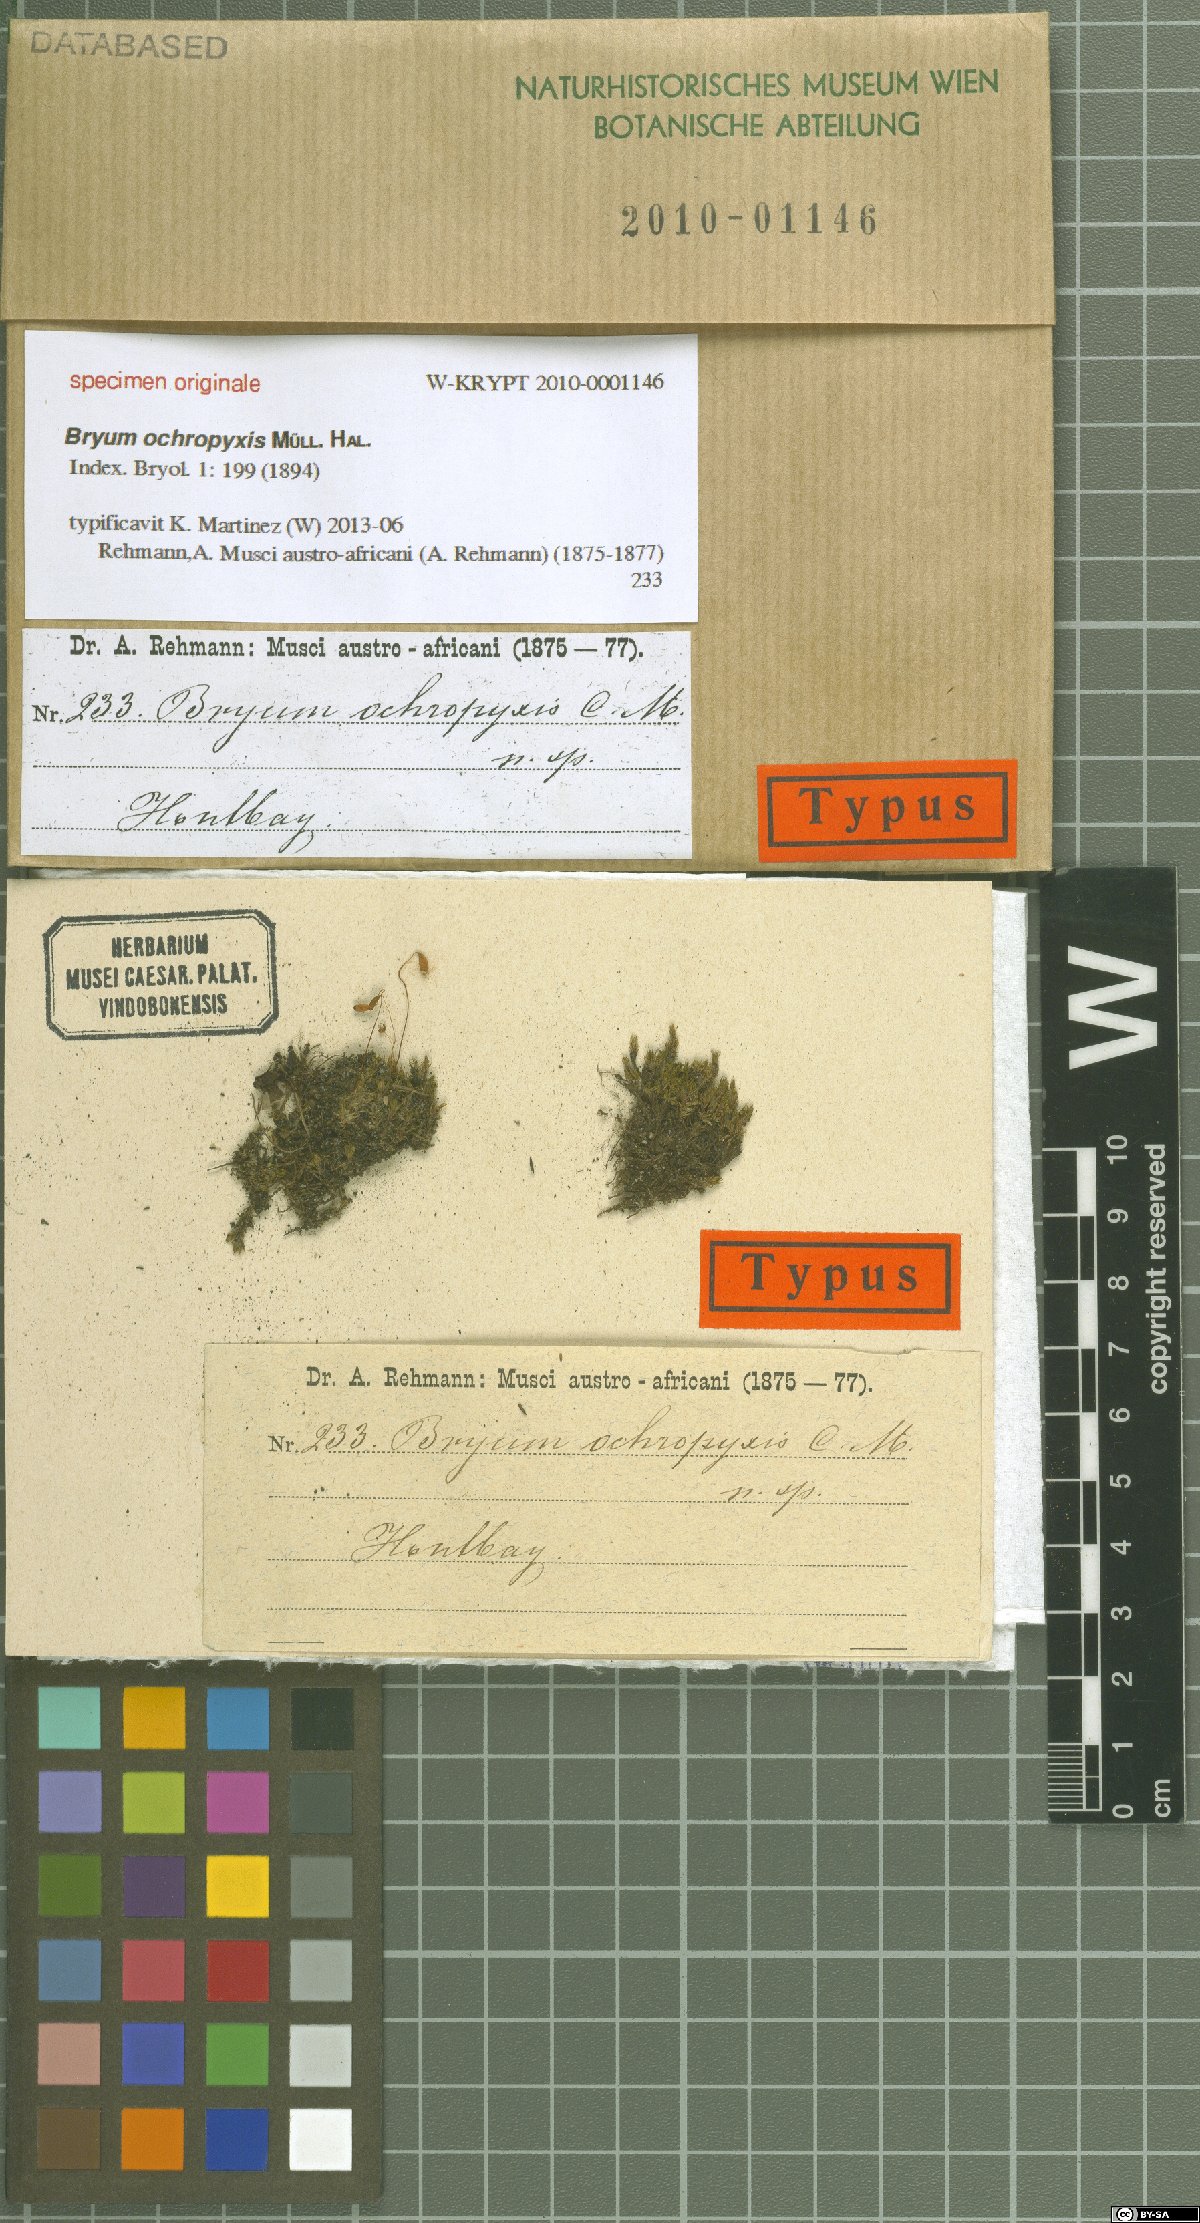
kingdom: Plantae
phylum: Bryophyta
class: Bryopsida
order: Bryales
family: Bryaceae
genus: Bryum
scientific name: Bryum
